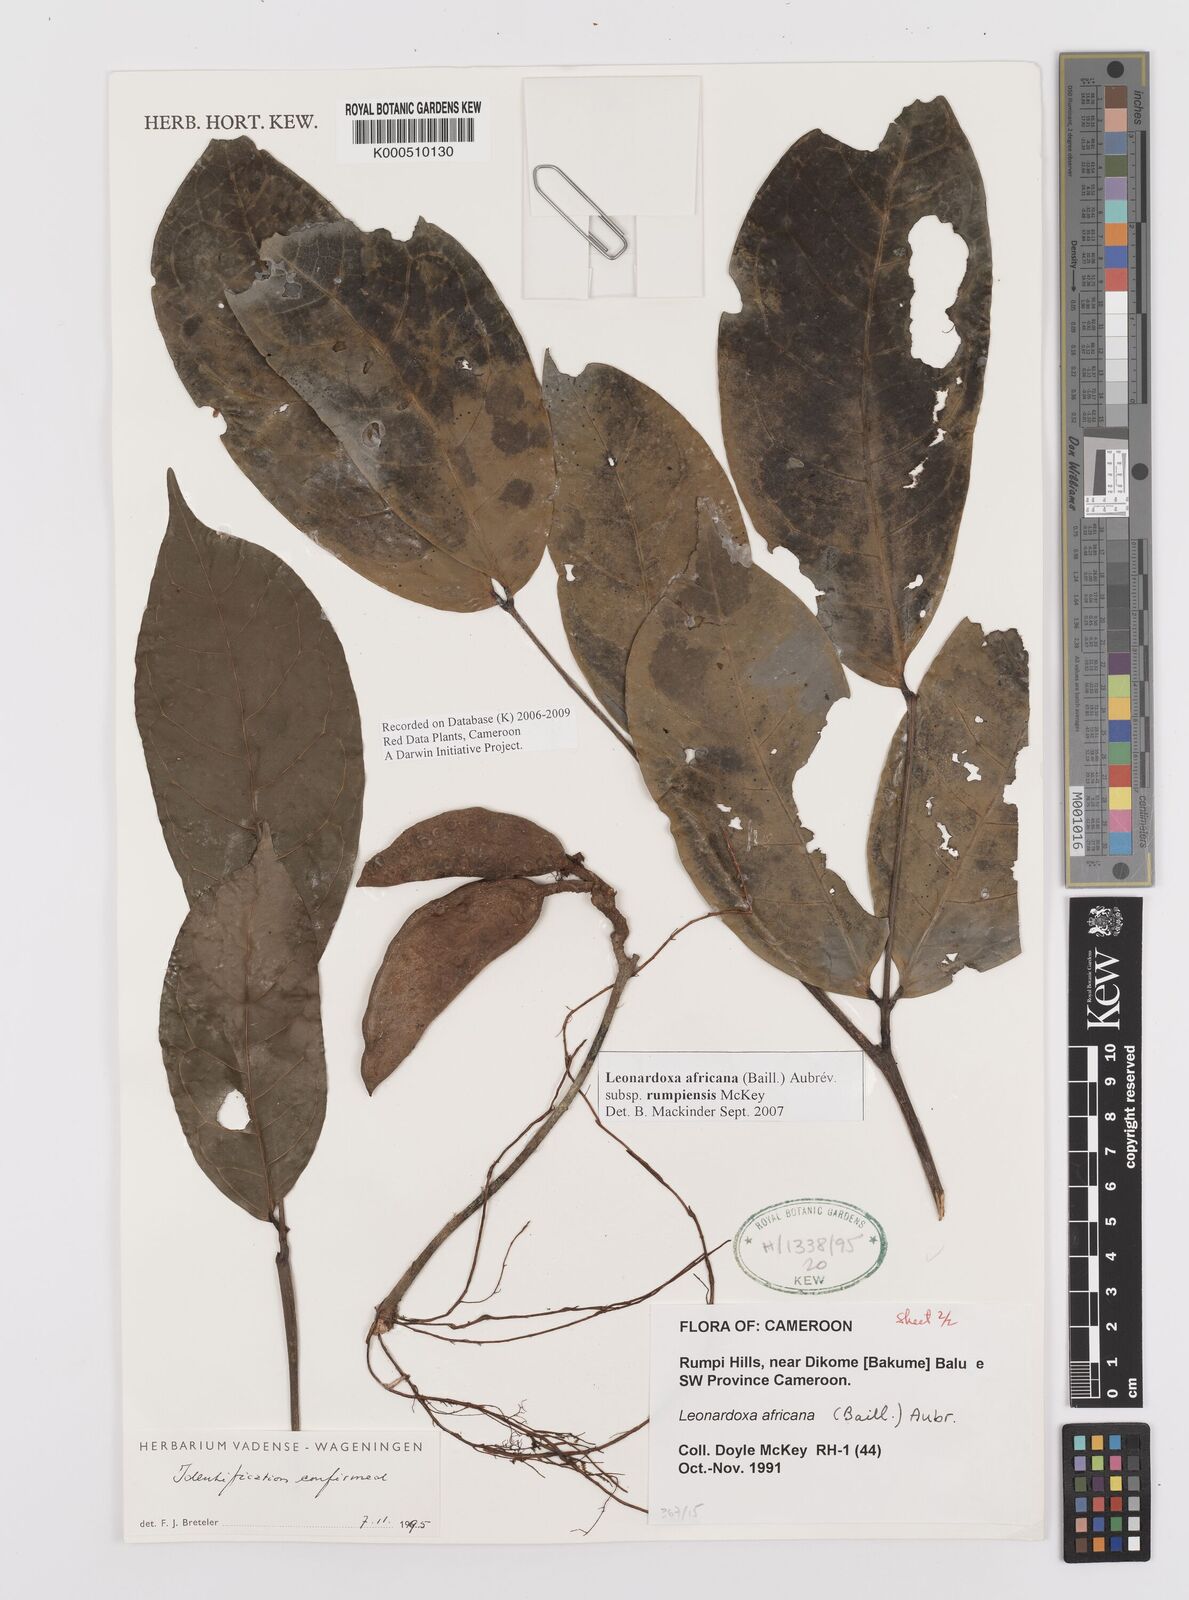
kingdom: Plantae
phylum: Tracheophyta
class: Magnoliopsida
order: Fabales
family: Fabaceae
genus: Leonardoxa
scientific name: Leonardoxa
